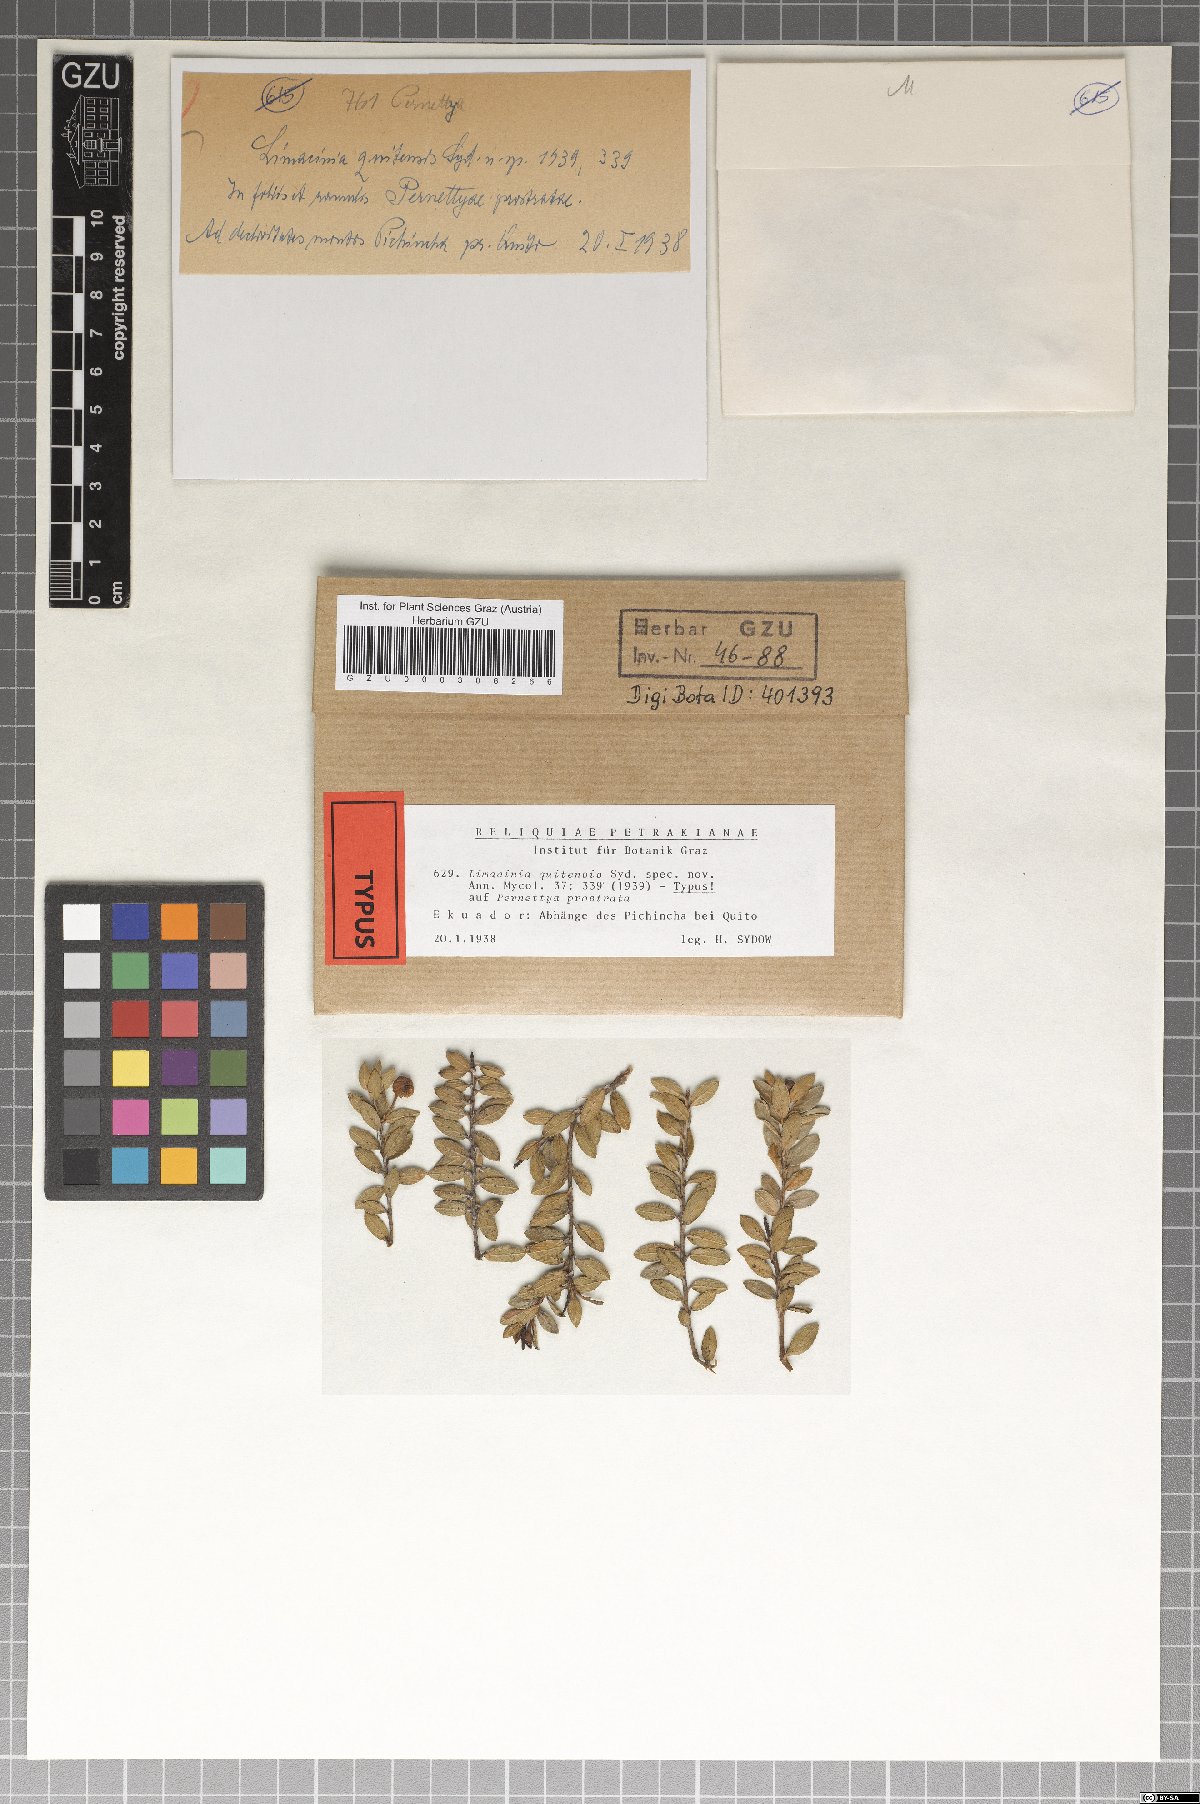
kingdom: Fungi
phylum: Ascomycota
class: Dothideomycetes
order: Capnodiales
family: Capnodiaceae
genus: Limacinia
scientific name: Limacinia quitensis
